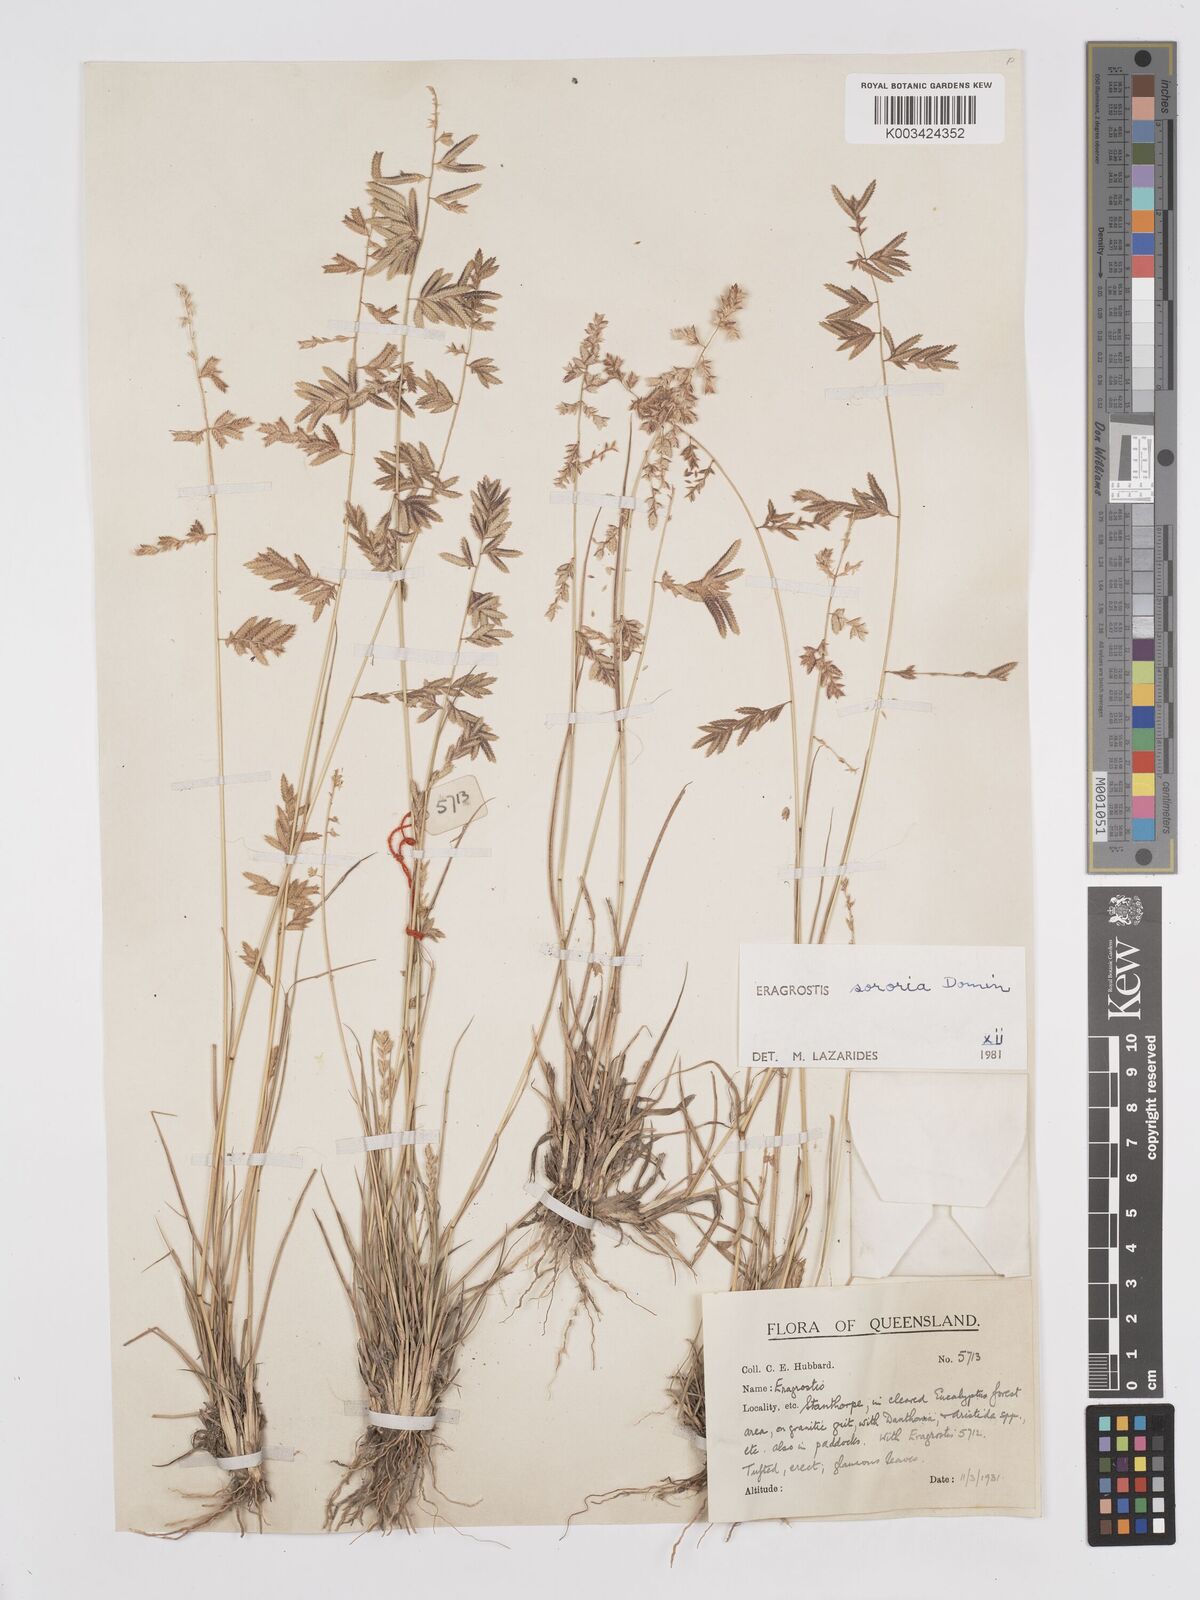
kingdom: Plantae
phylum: Tracheophyta
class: Liliopsida
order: Poales
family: Poaceae
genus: Eragrostis
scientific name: Eragrostis sororia
